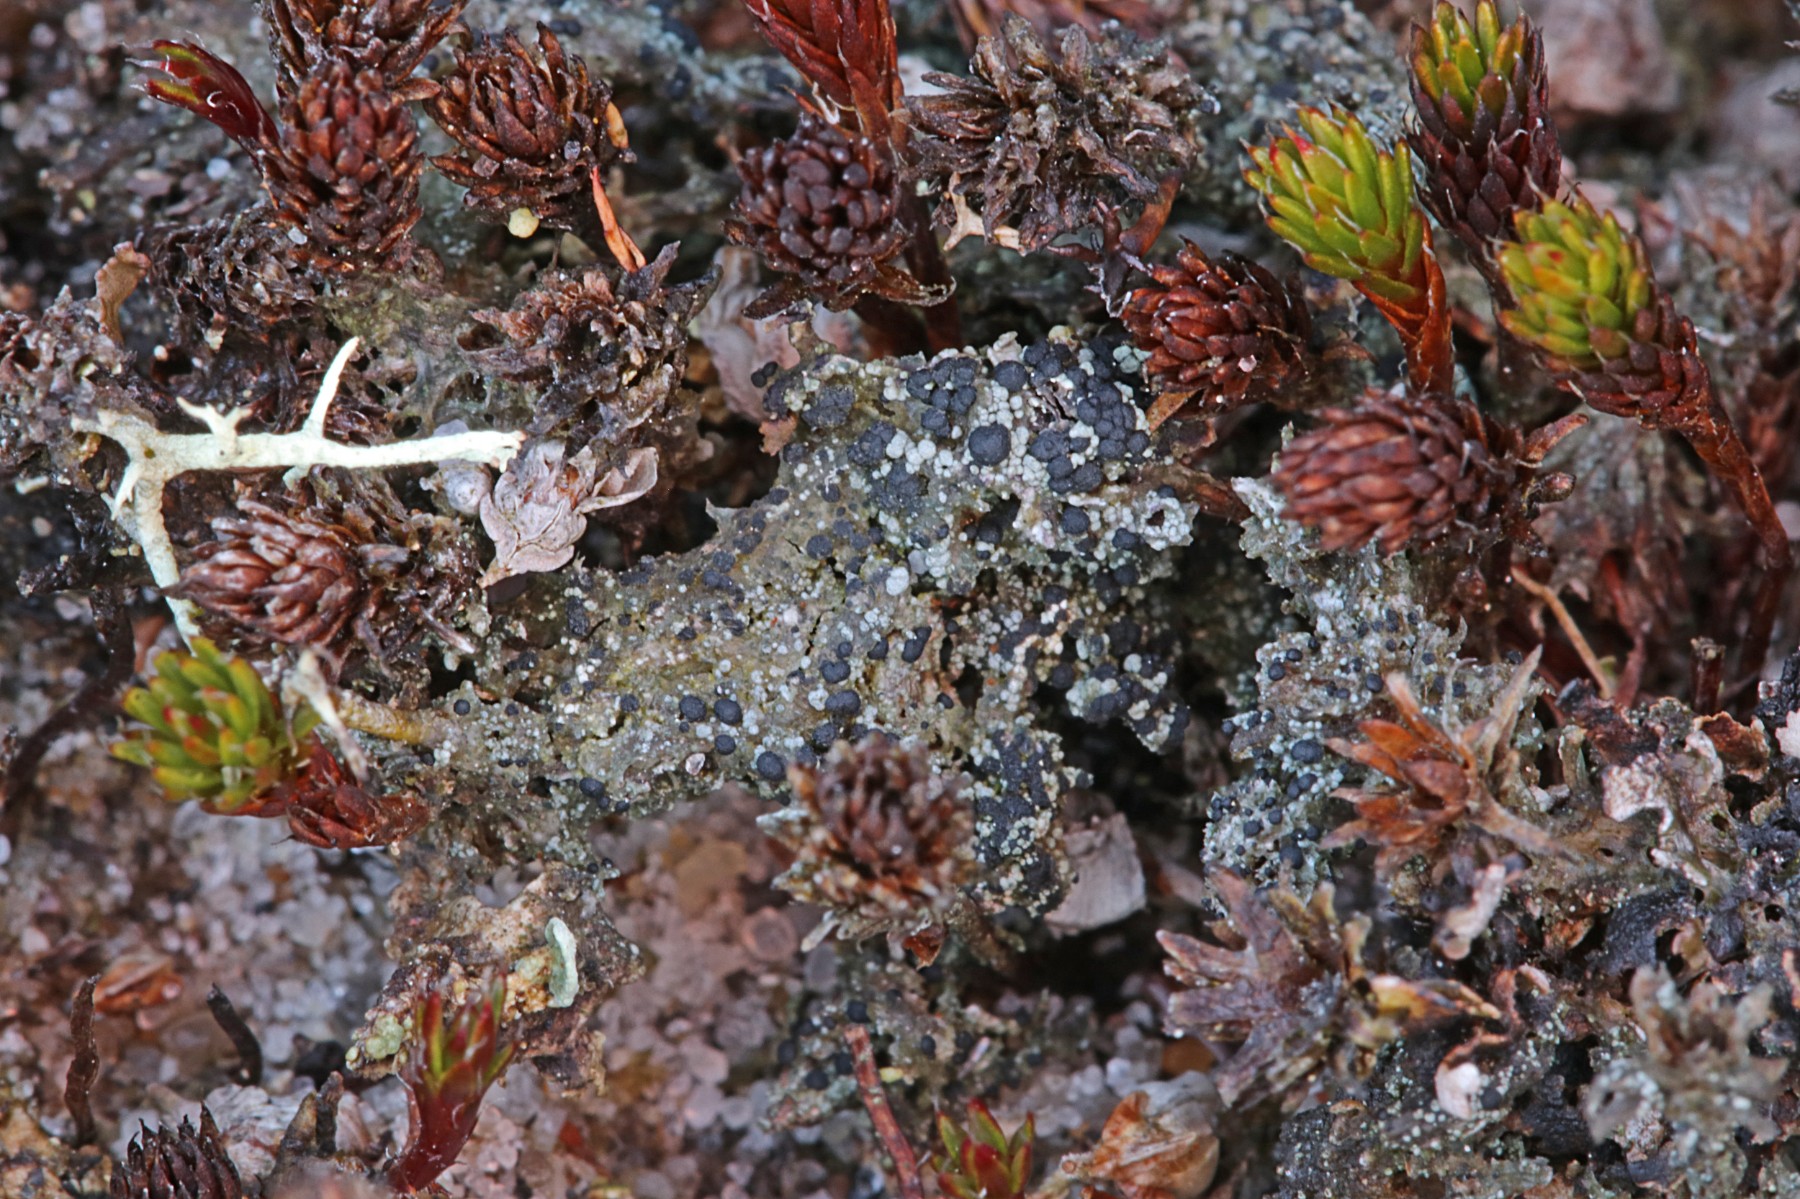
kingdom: Fungi
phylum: Ascomycota
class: Lecanoromycetes
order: Lecanorales
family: Byssolomataceae
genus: Micarea
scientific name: Micarea lignaria
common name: tørve-knaplav
